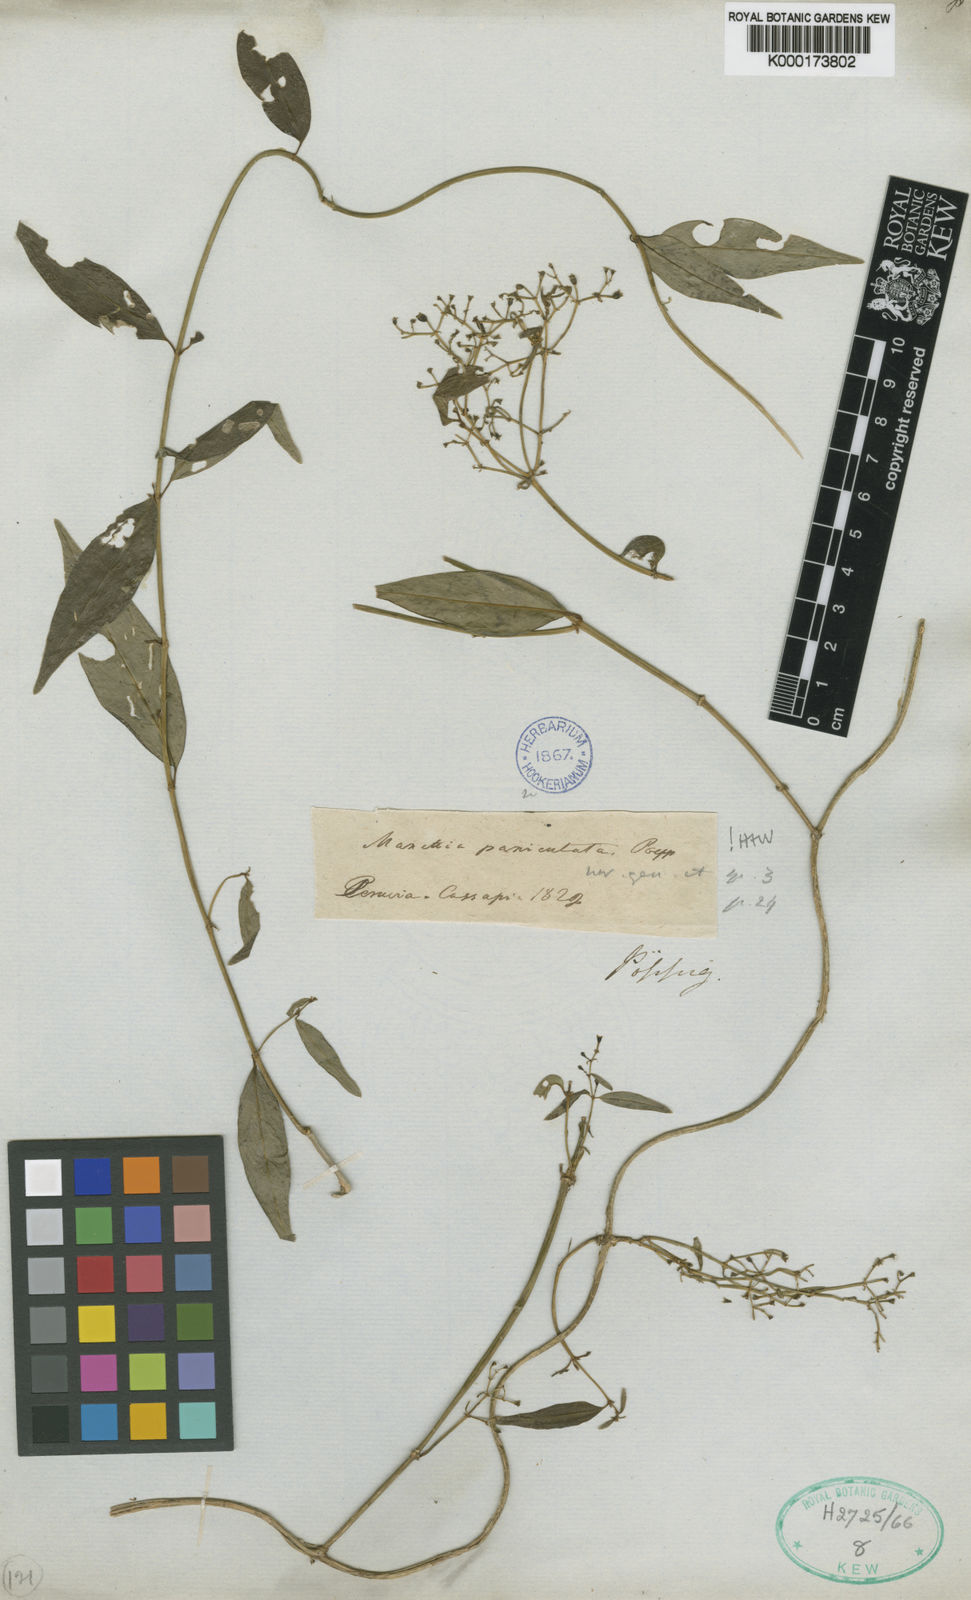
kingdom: Plantae
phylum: Tracheophyta
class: Magnoliopsida
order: Gentianales
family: Rubiaceae
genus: Manettia
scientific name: Manettia paniculata
